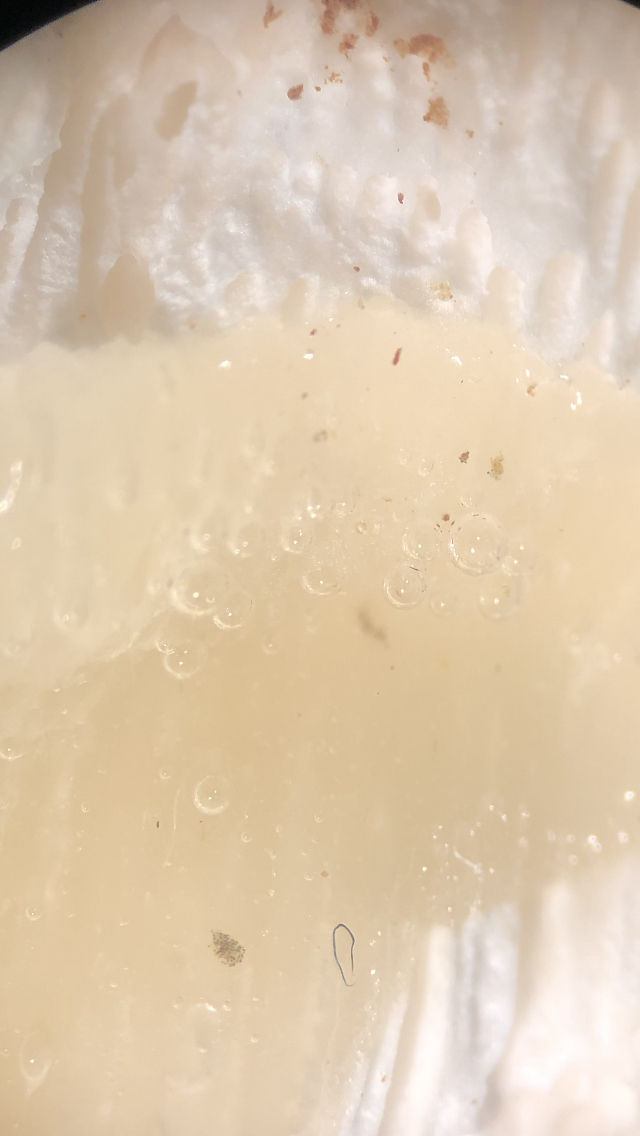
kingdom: Fungi
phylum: Basidiomycota
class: Agaricomycetes
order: Polyporales
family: Gelatoporiaceae
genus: Cinereomyces
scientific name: Cinereomyces lindbladii
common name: almindelig gråporesvamp
